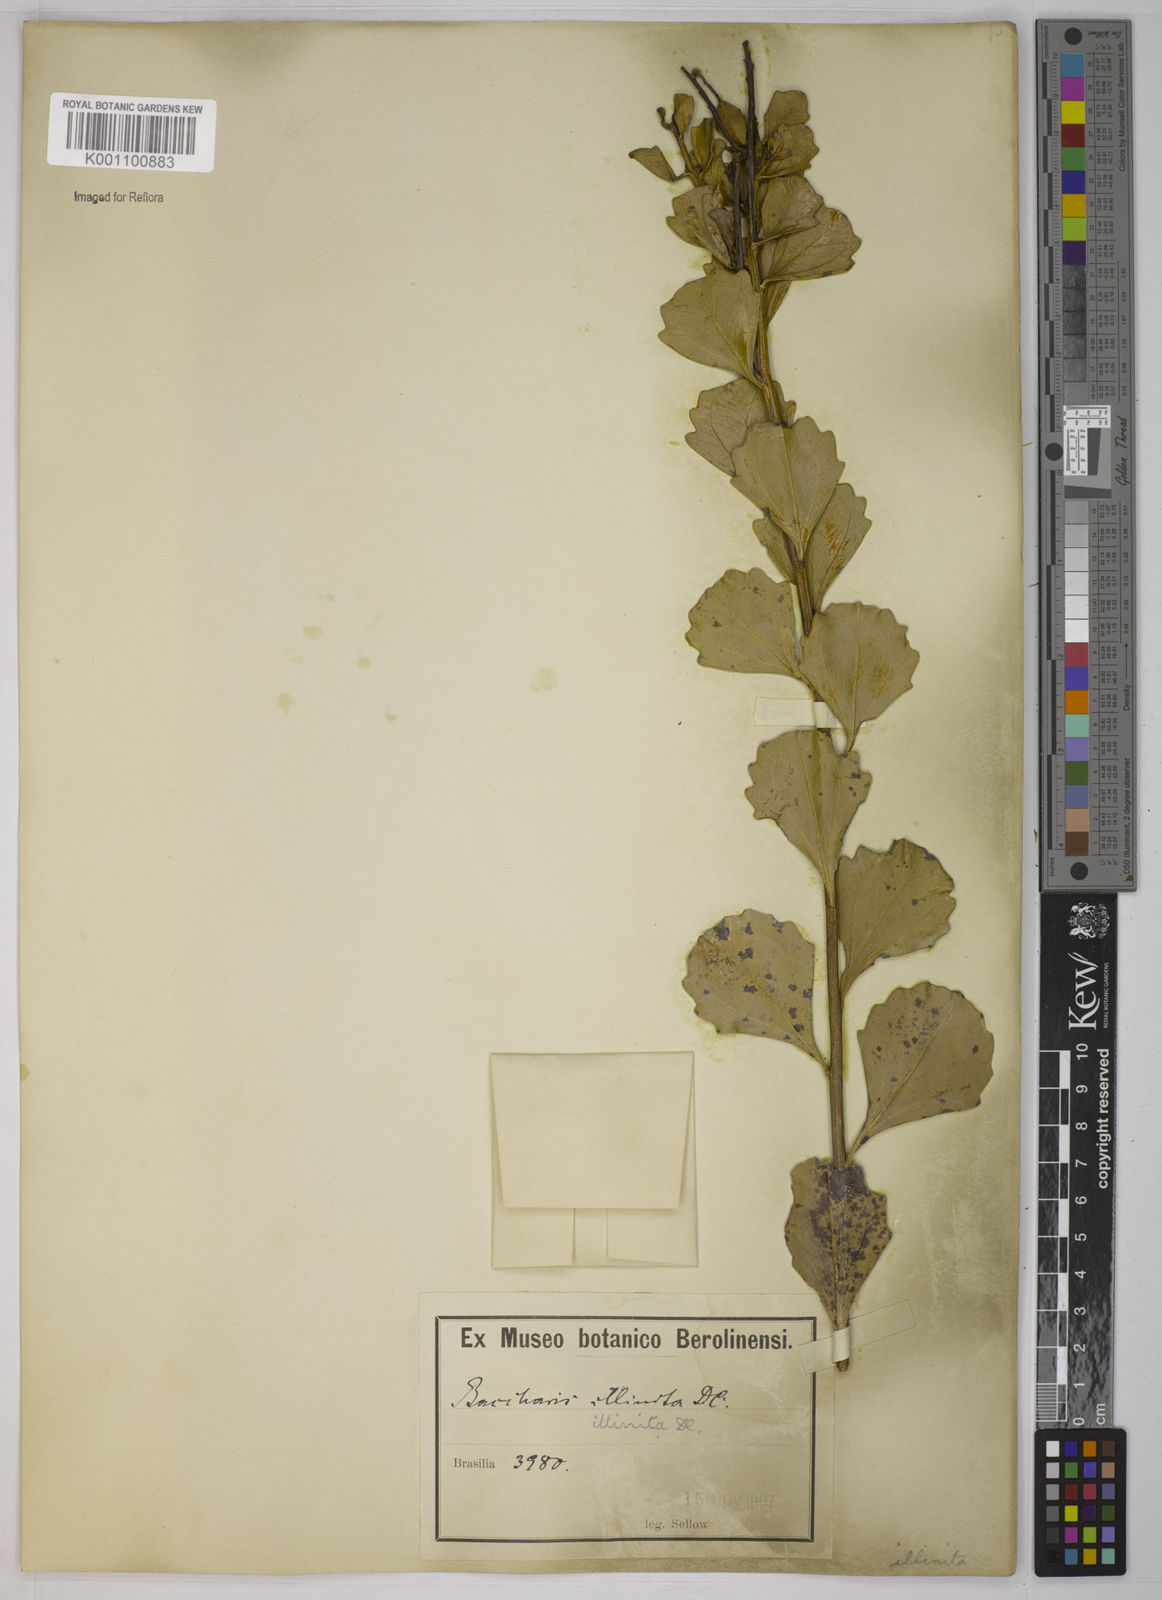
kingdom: Plantae
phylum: Tracheophyta
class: Magnoliopsida
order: Asterales
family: Asteraceae
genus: Baccharis
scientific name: Baccharis tridentata
